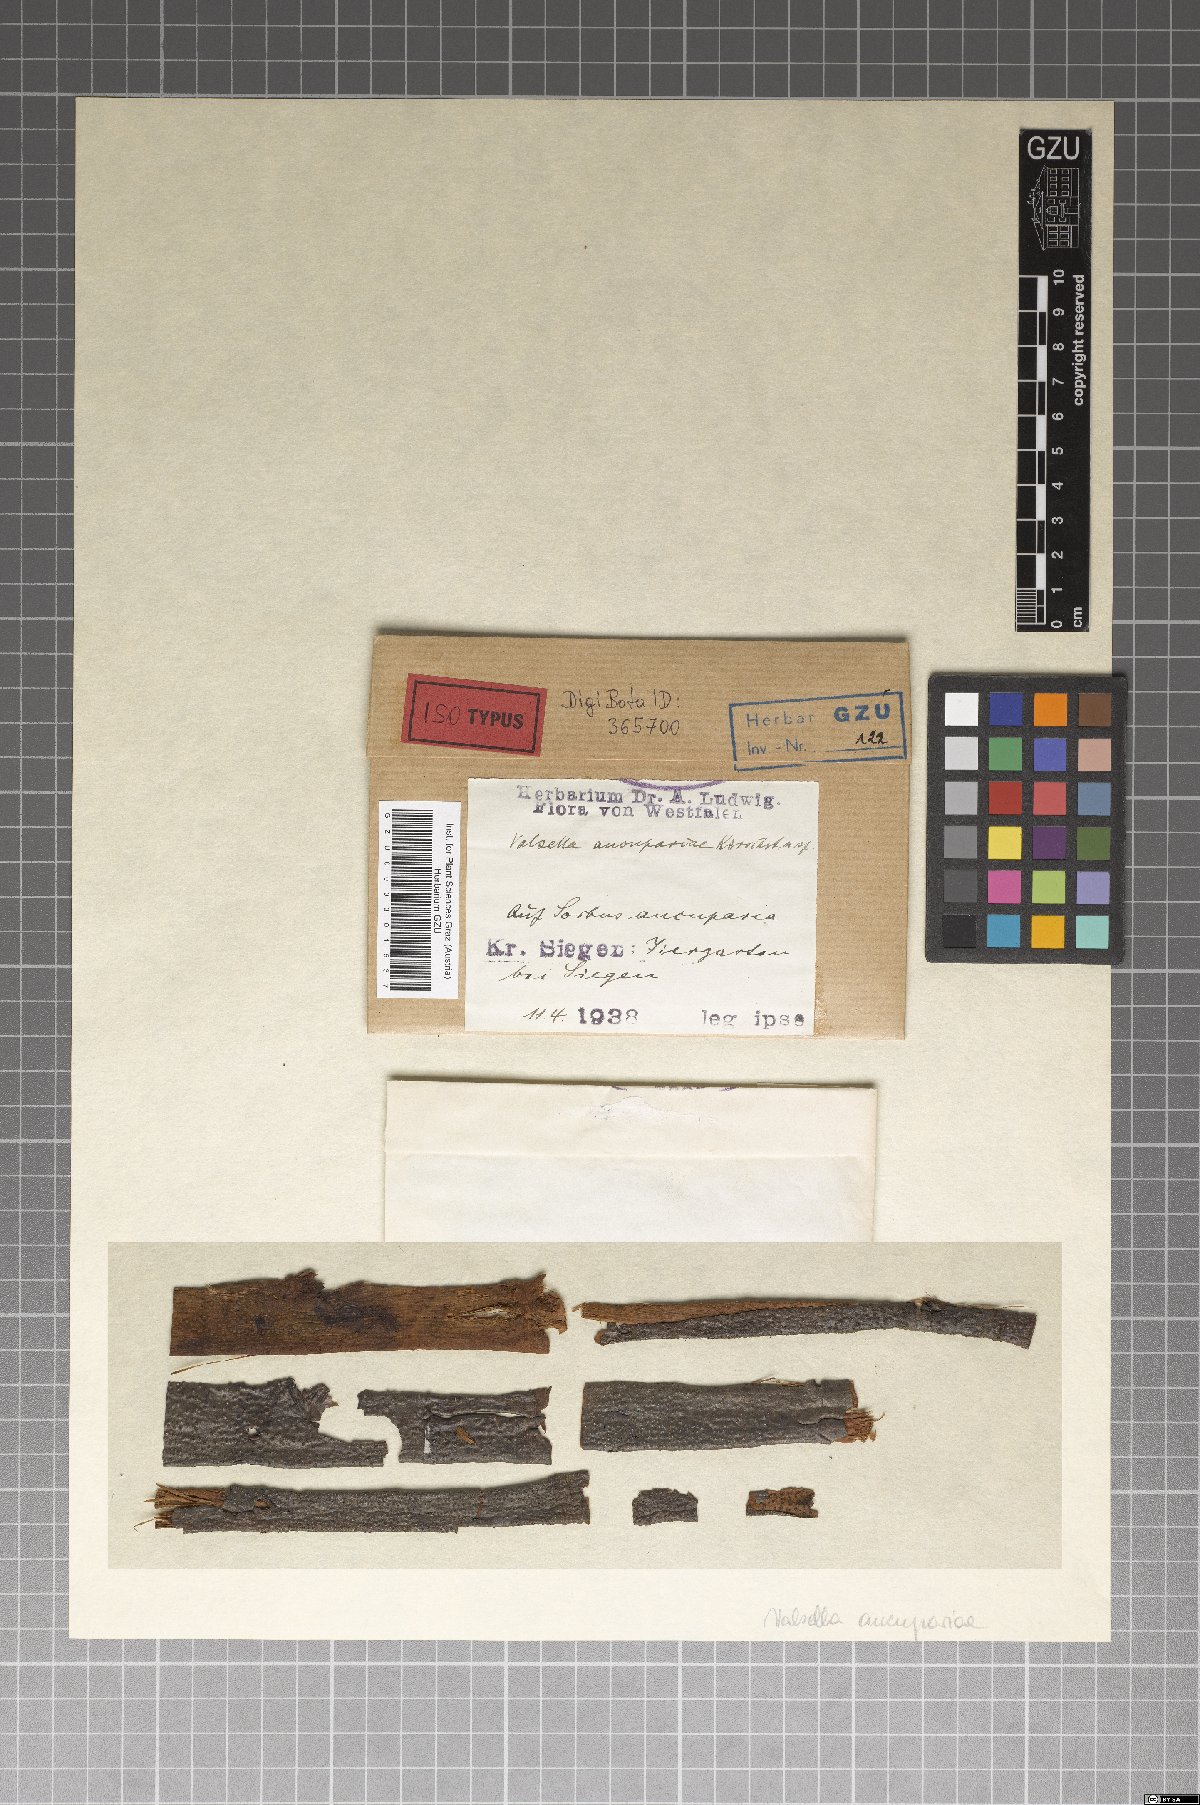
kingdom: Fungi
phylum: Ascomycota
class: Sordariomycetes
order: Diaporthales
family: Valsaceae
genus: Valsella
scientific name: Valsella aucupariae
